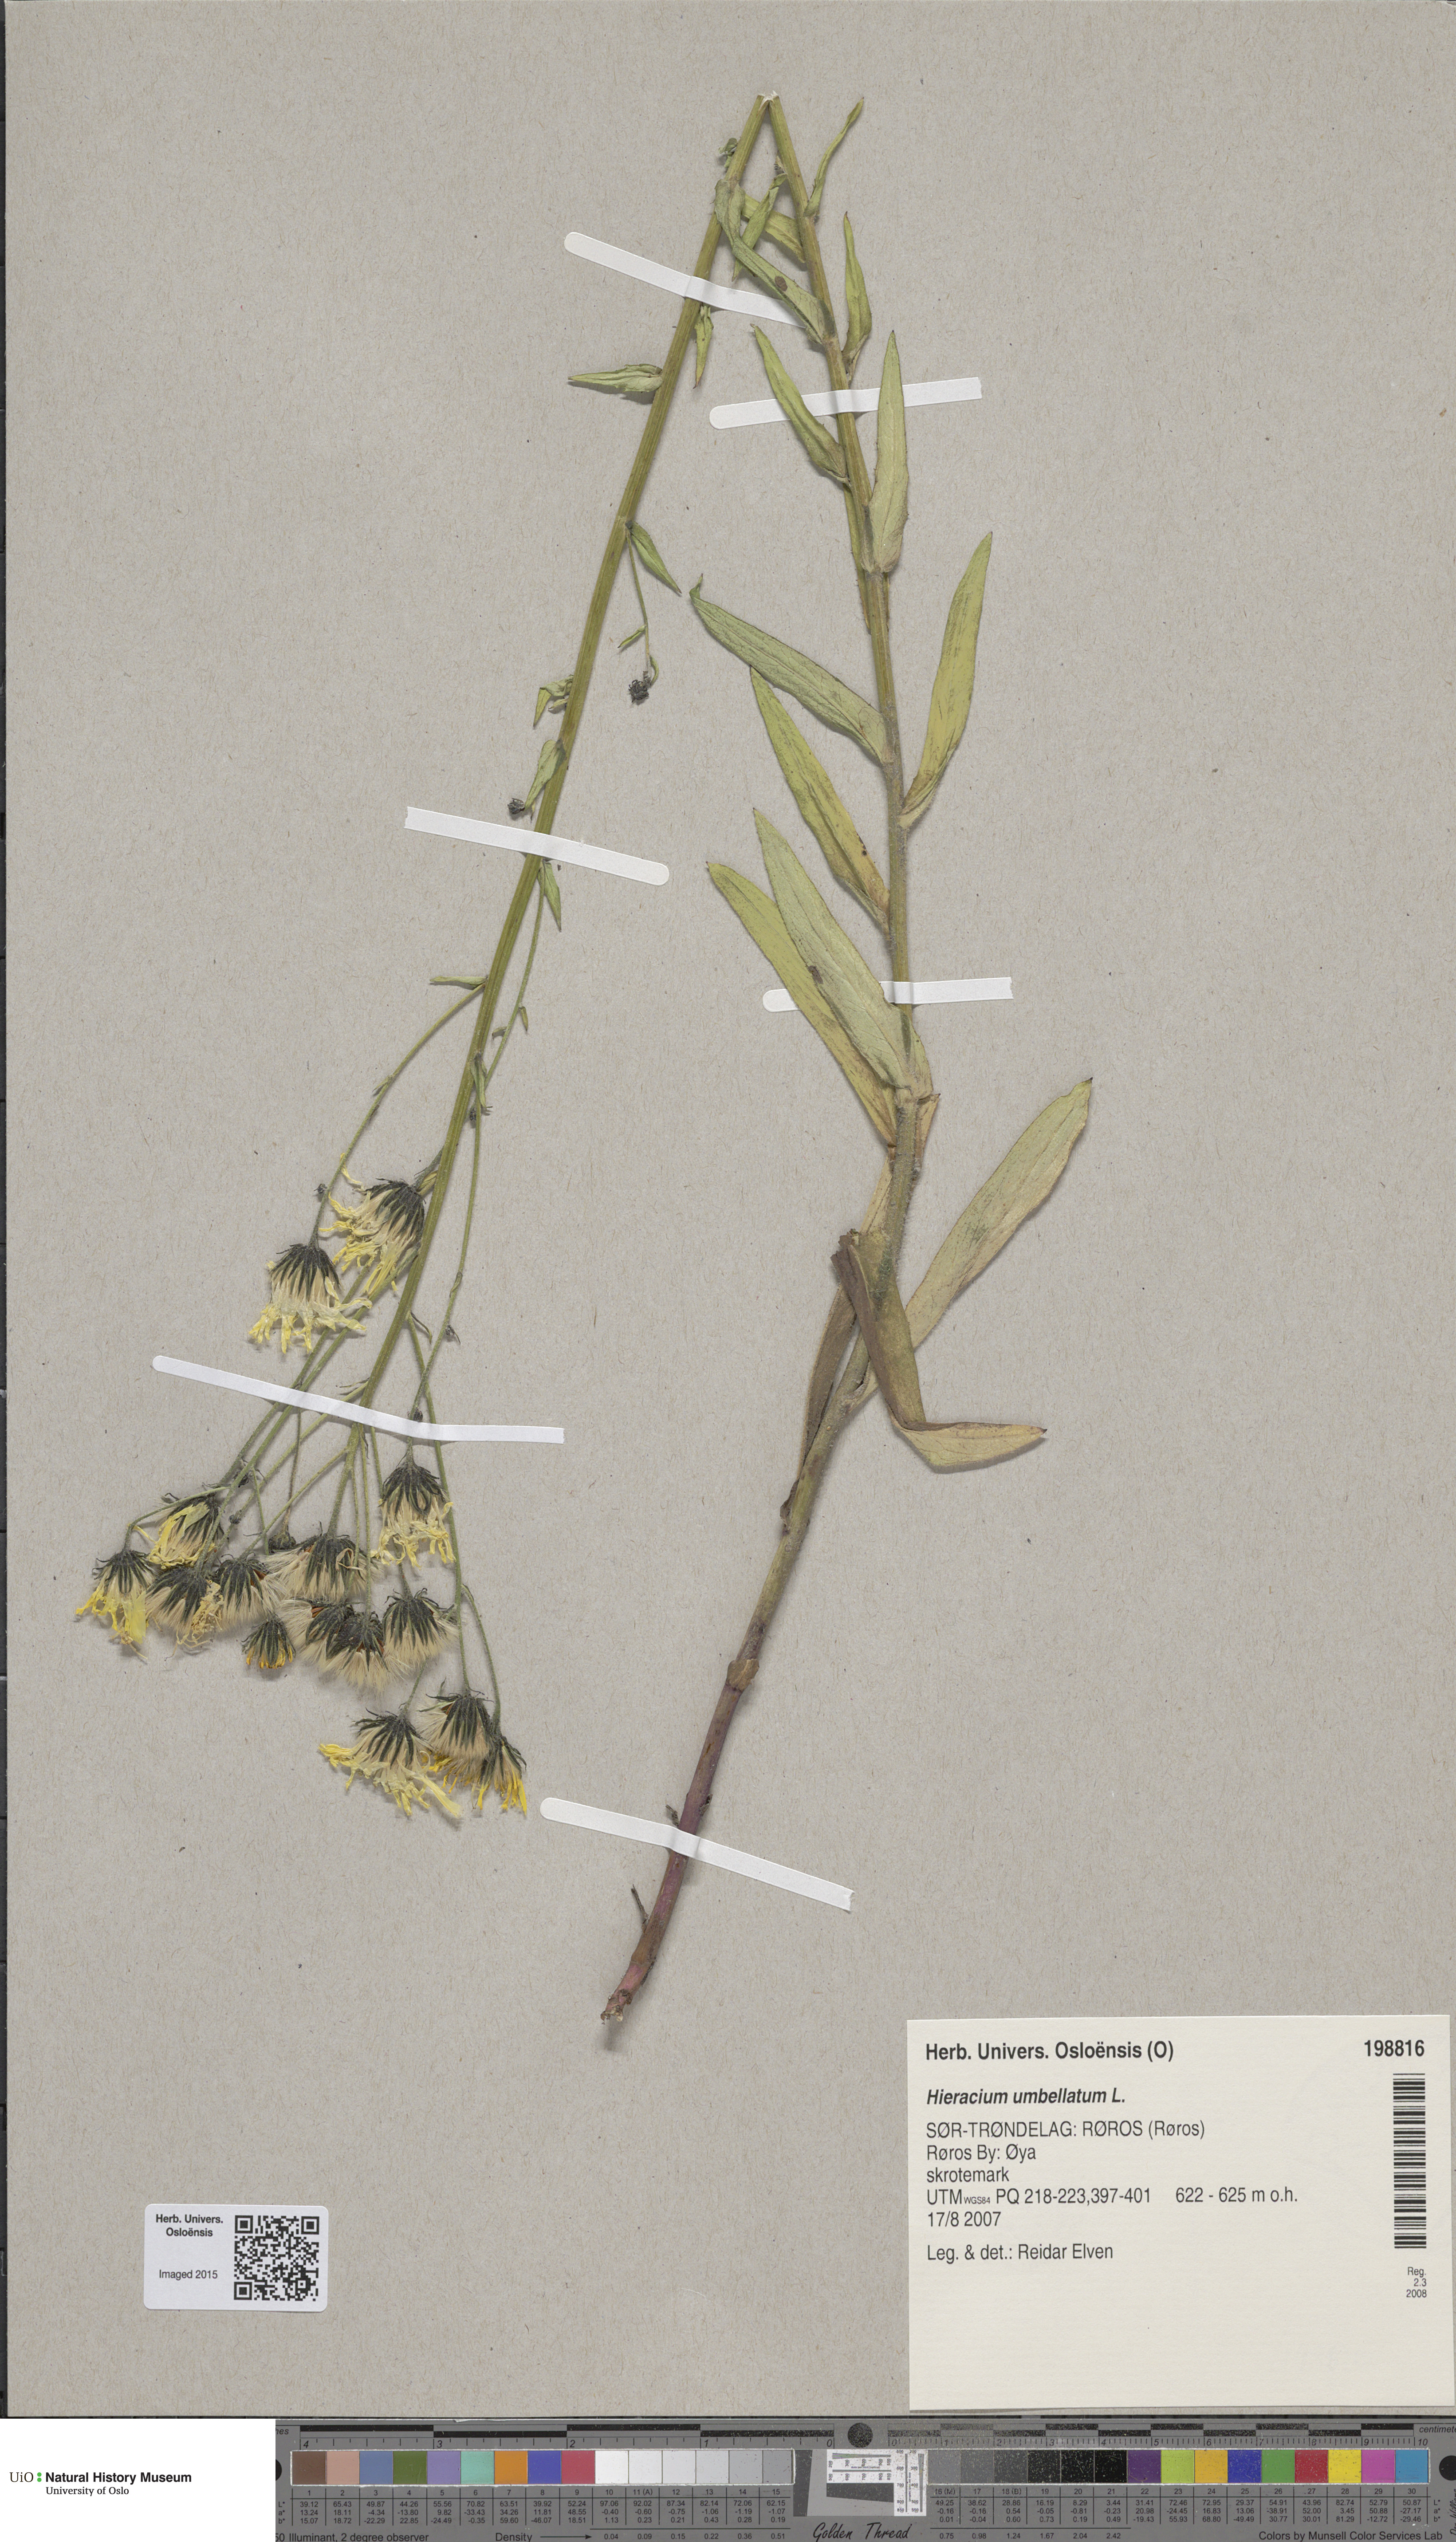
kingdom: Plantae
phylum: Tracheophyta
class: Magnoliopsida
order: Asterales
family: Asteraceae
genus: Hieracium
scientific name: Hieracium umbellatum
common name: Northern hawkweed
